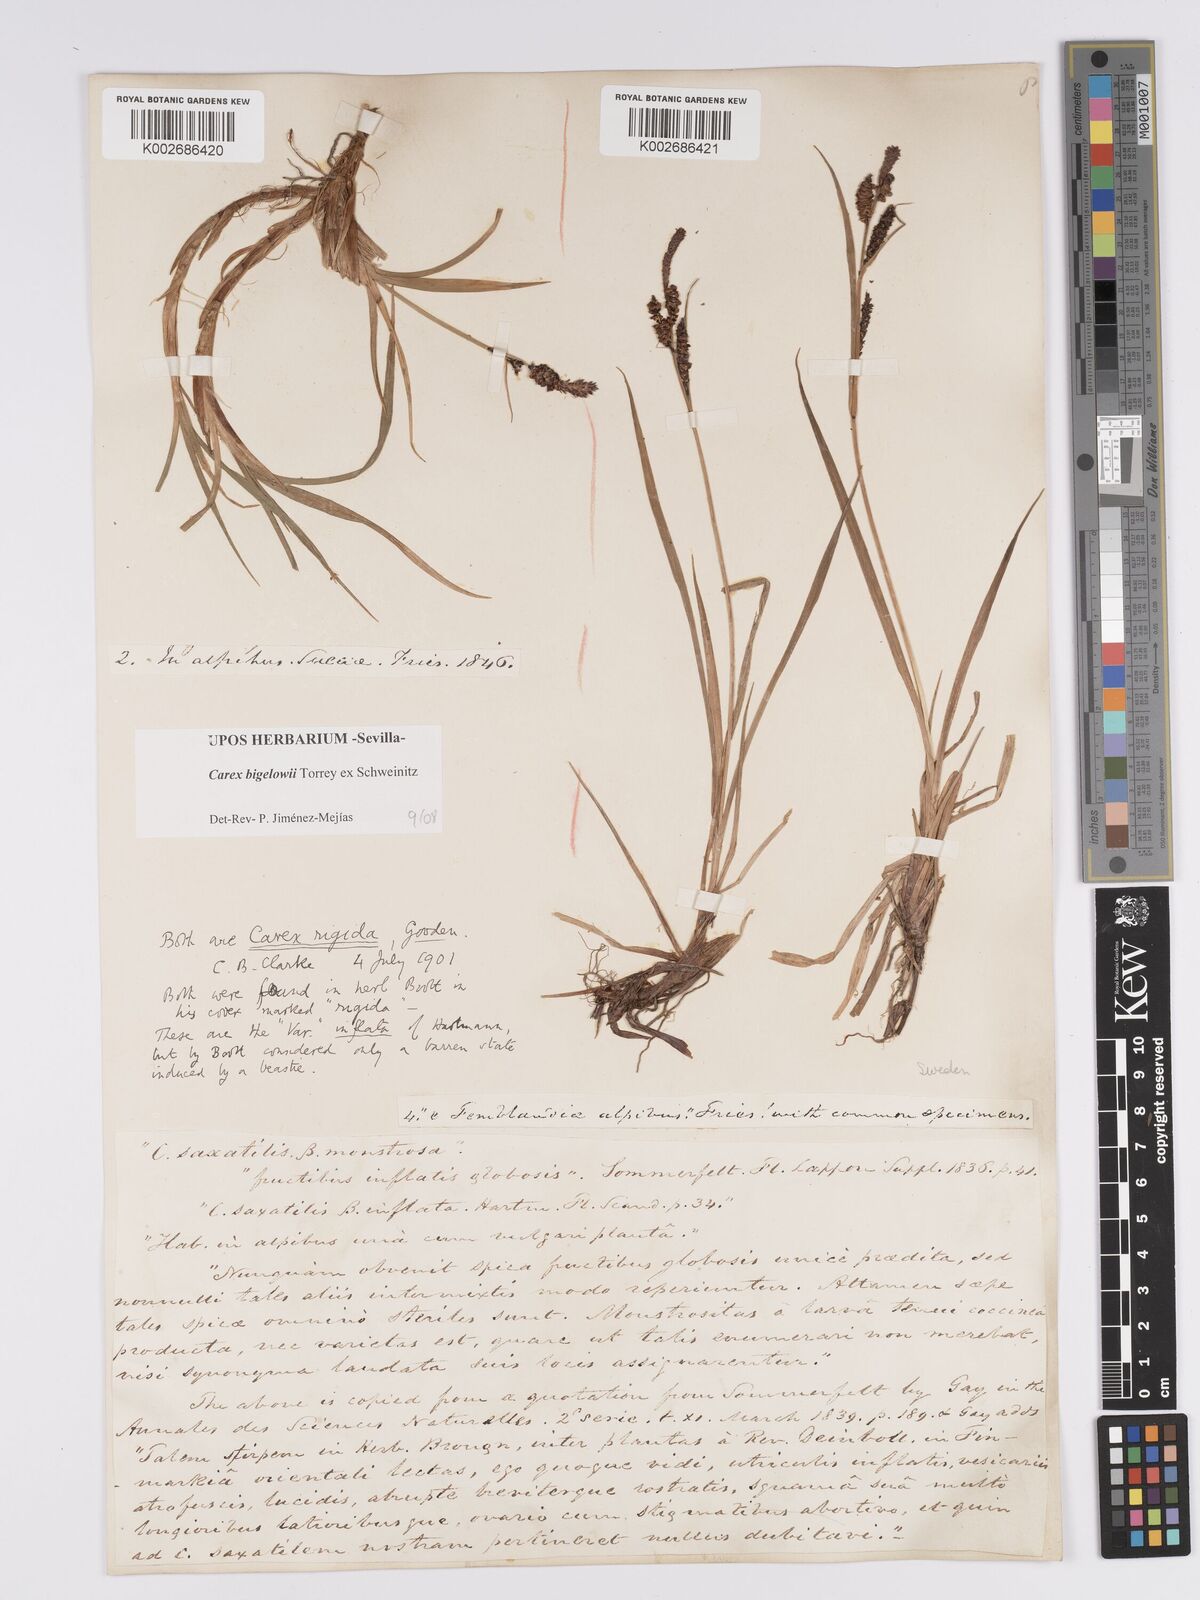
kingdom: Plantae
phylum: Tracheophyta
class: Liliopsida
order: Poales
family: Cyperaceae
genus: Carex
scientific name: Carex bigelowii
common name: Stiff sedge
